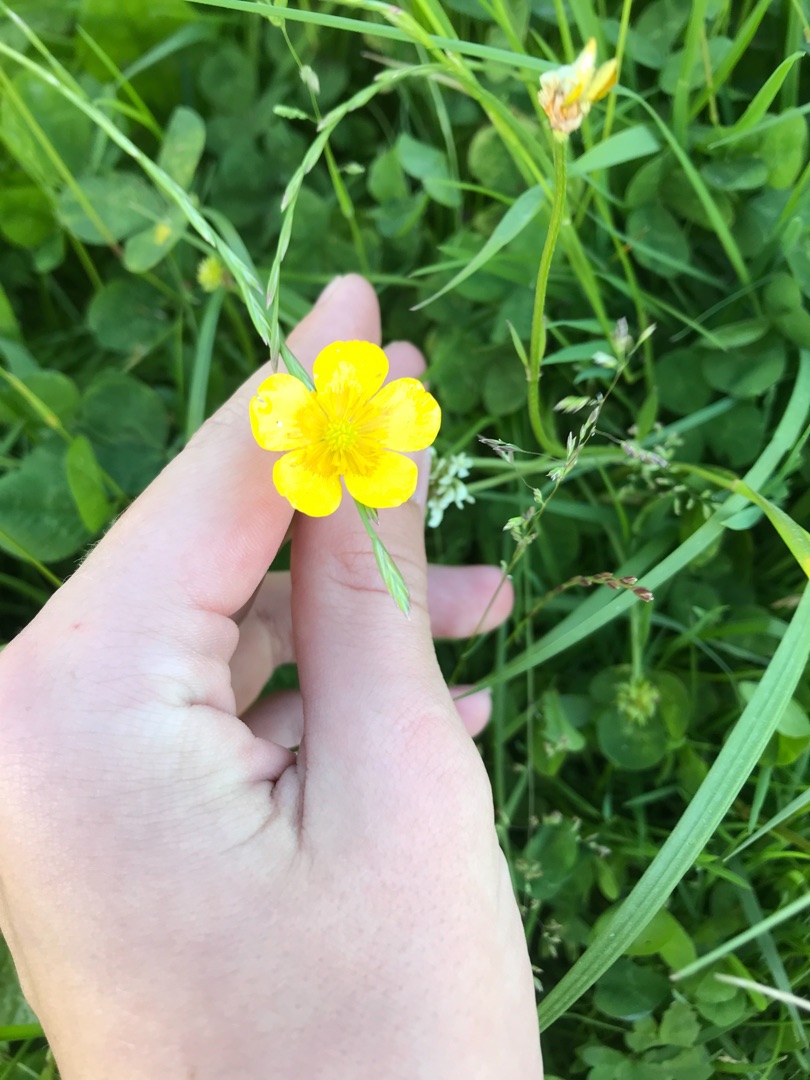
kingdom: Plantae
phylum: Tracheophyta
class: Magnoliopsida
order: Ranunculales
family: Ranunculaceae
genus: Ranunculus
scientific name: Ranunculus
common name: Ranunkelslægten
